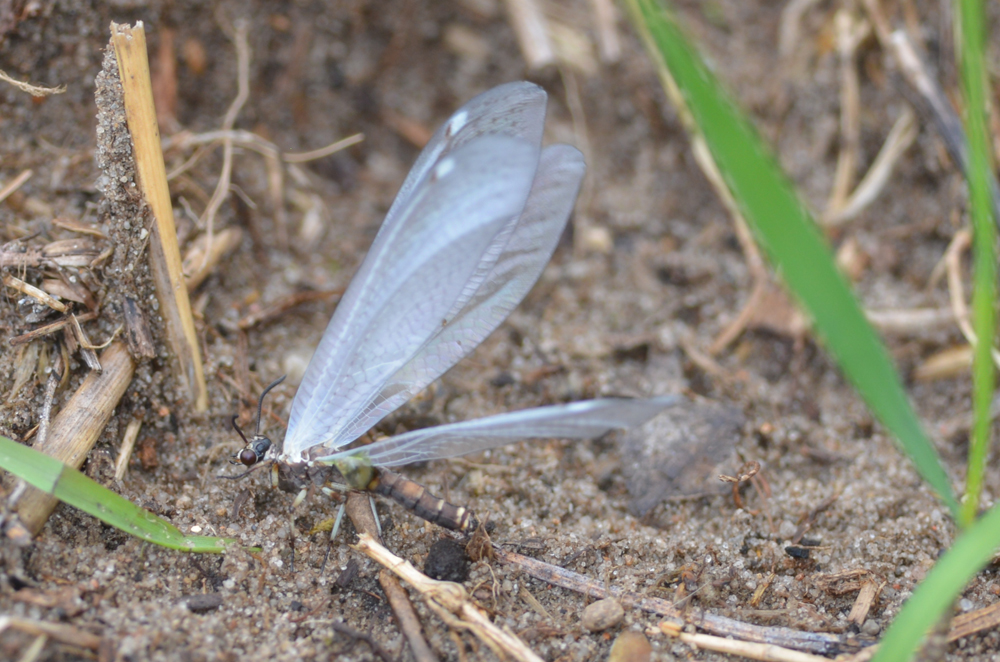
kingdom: Animalia
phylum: Arthropoda
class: Insecta
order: Neuroptera
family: Myrmeleontidae
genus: Myrmeleon
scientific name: Myrmeleon formicarius
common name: Ant-lion
